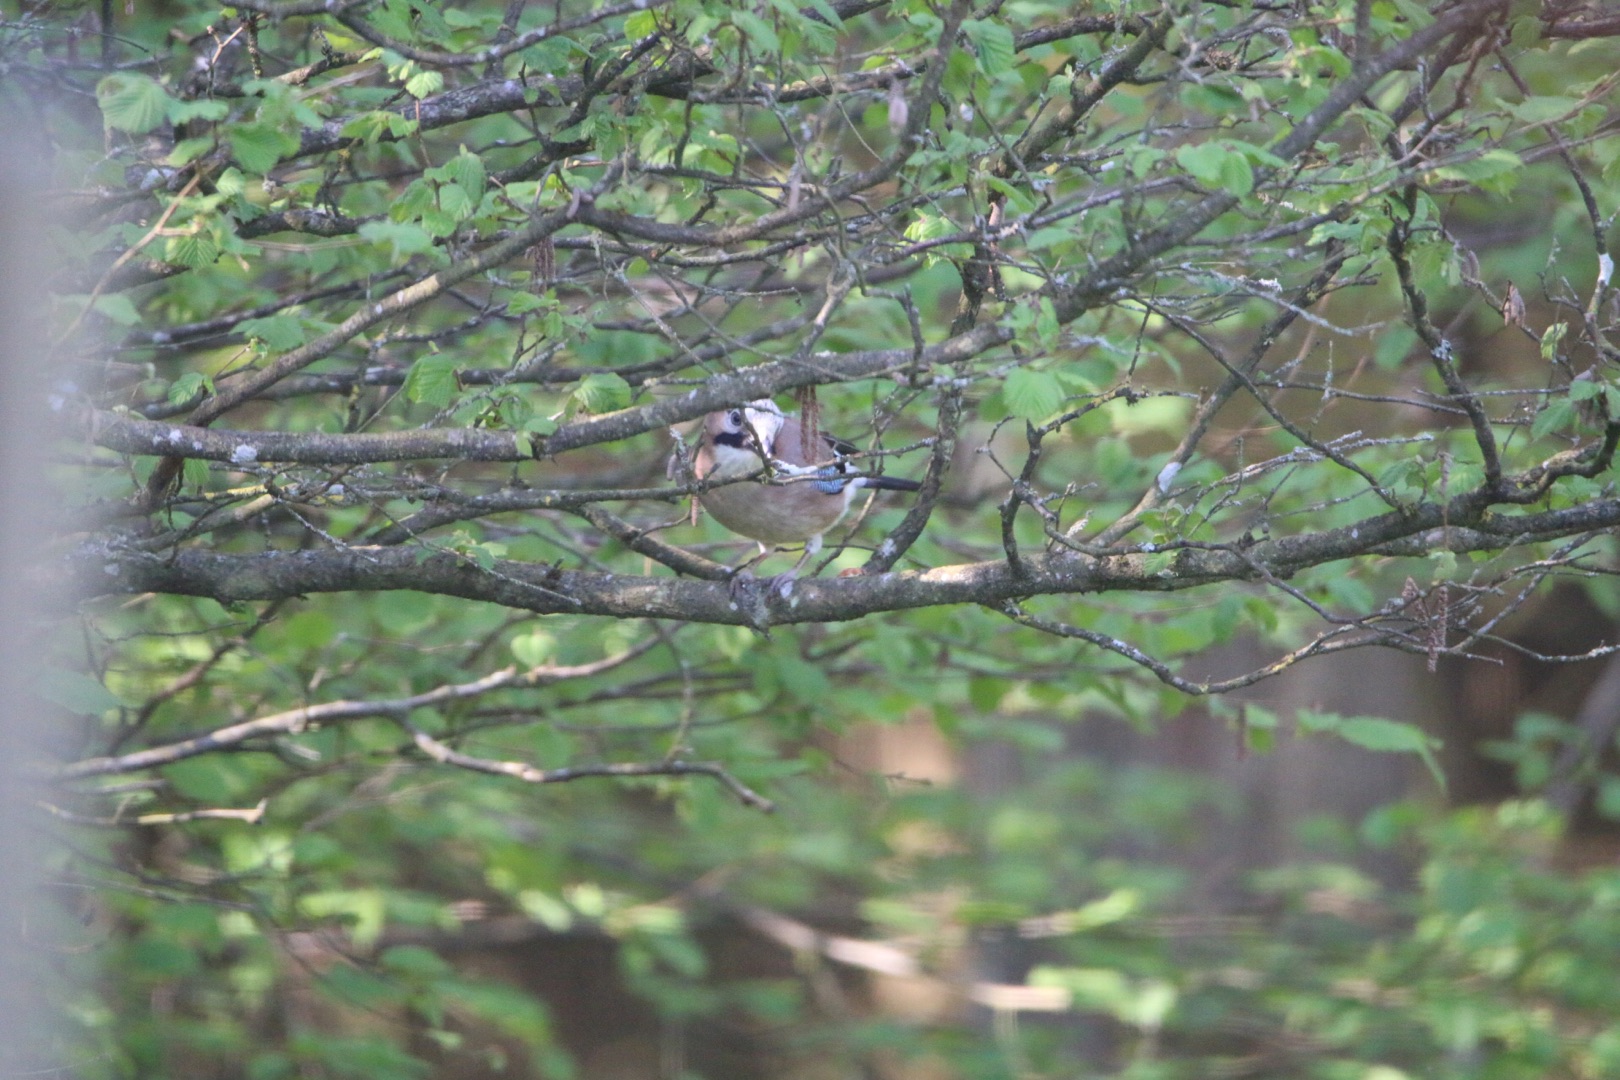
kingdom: Animalia
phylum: Chordata
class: Aves
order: Passeriformes
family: Corvidae
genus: Garrulus
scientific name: Garrulus glandarius
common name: Skovskade
